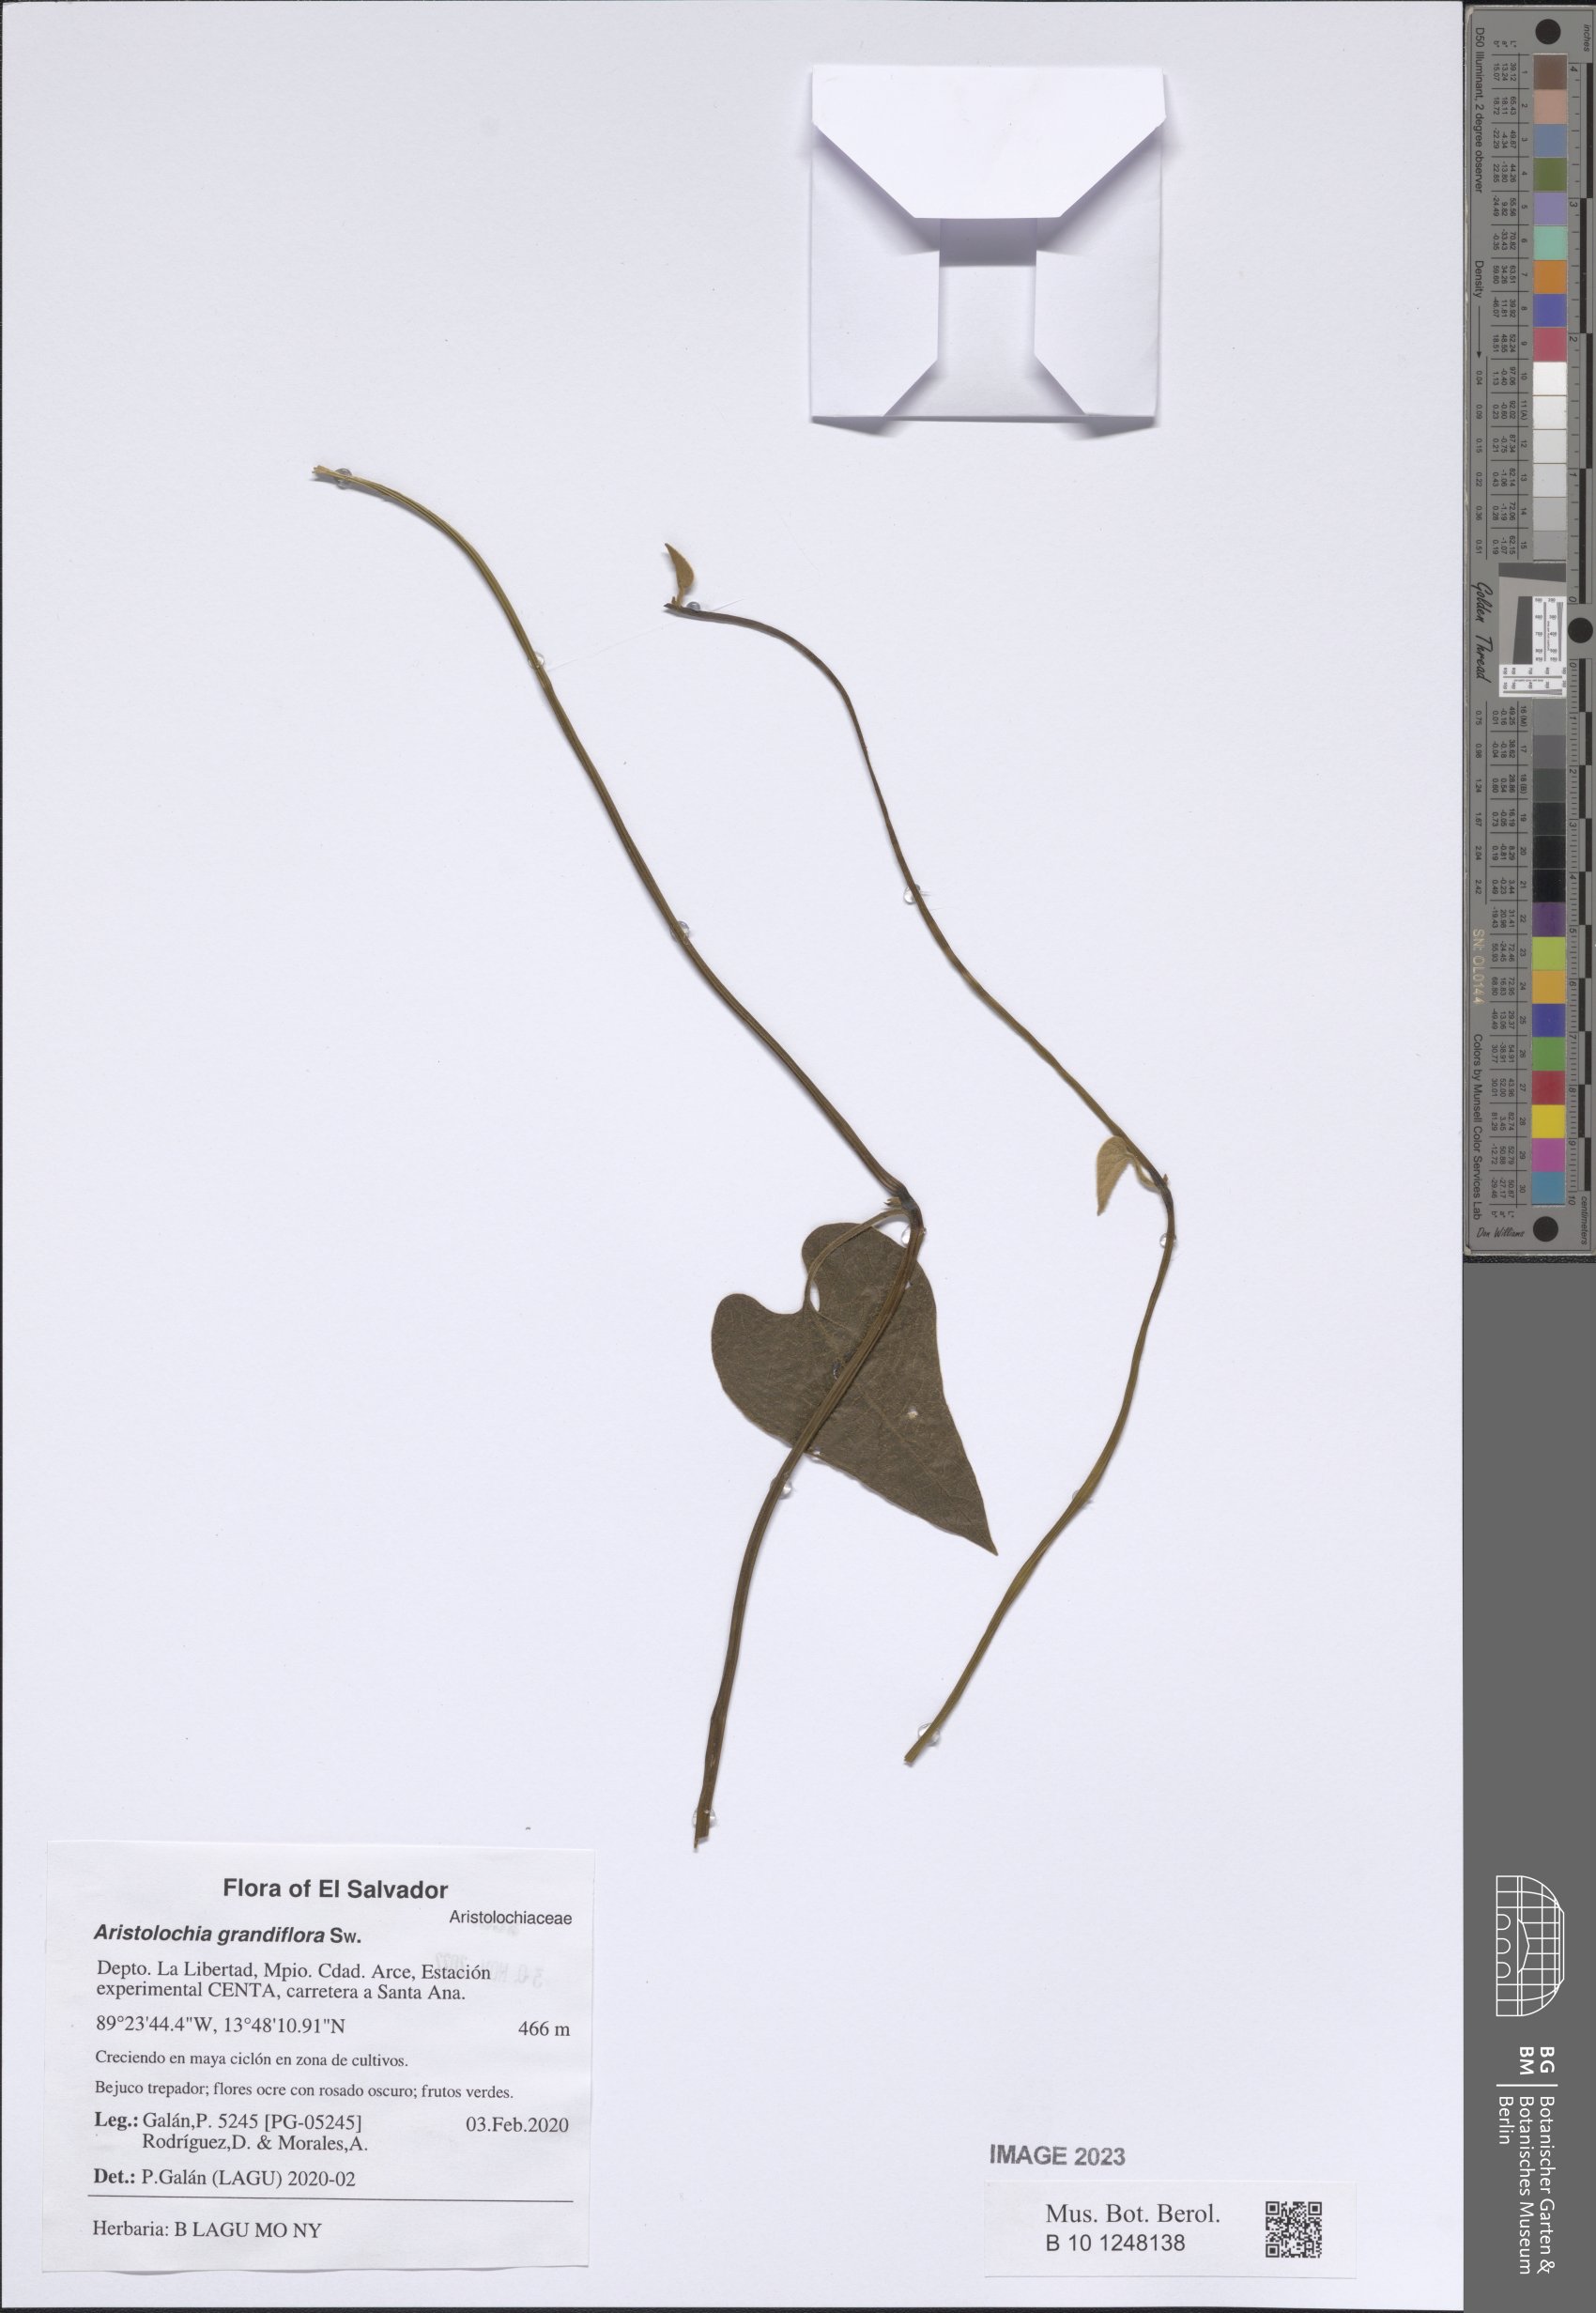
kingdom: Plantae
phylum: Tracheophyta
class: Magnoliopsida
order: Piperales
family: Aristolochiaceae
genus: Aristolochia
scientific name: Aristolochia grandiflora
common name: Pelicanflower
